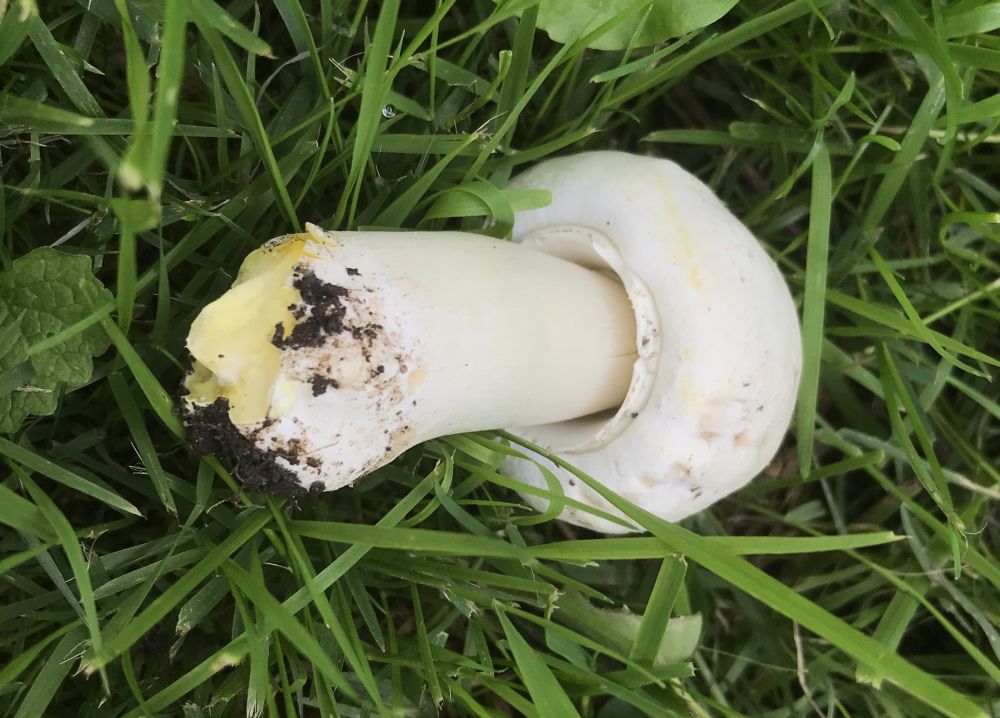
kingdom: Fungi
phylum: Basidiomycota
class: Agaricomycetes
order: Agaricales
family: Agaricaceae
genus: Agaricus
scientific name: Agaricus xanthodermus
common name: karbol-champignon
